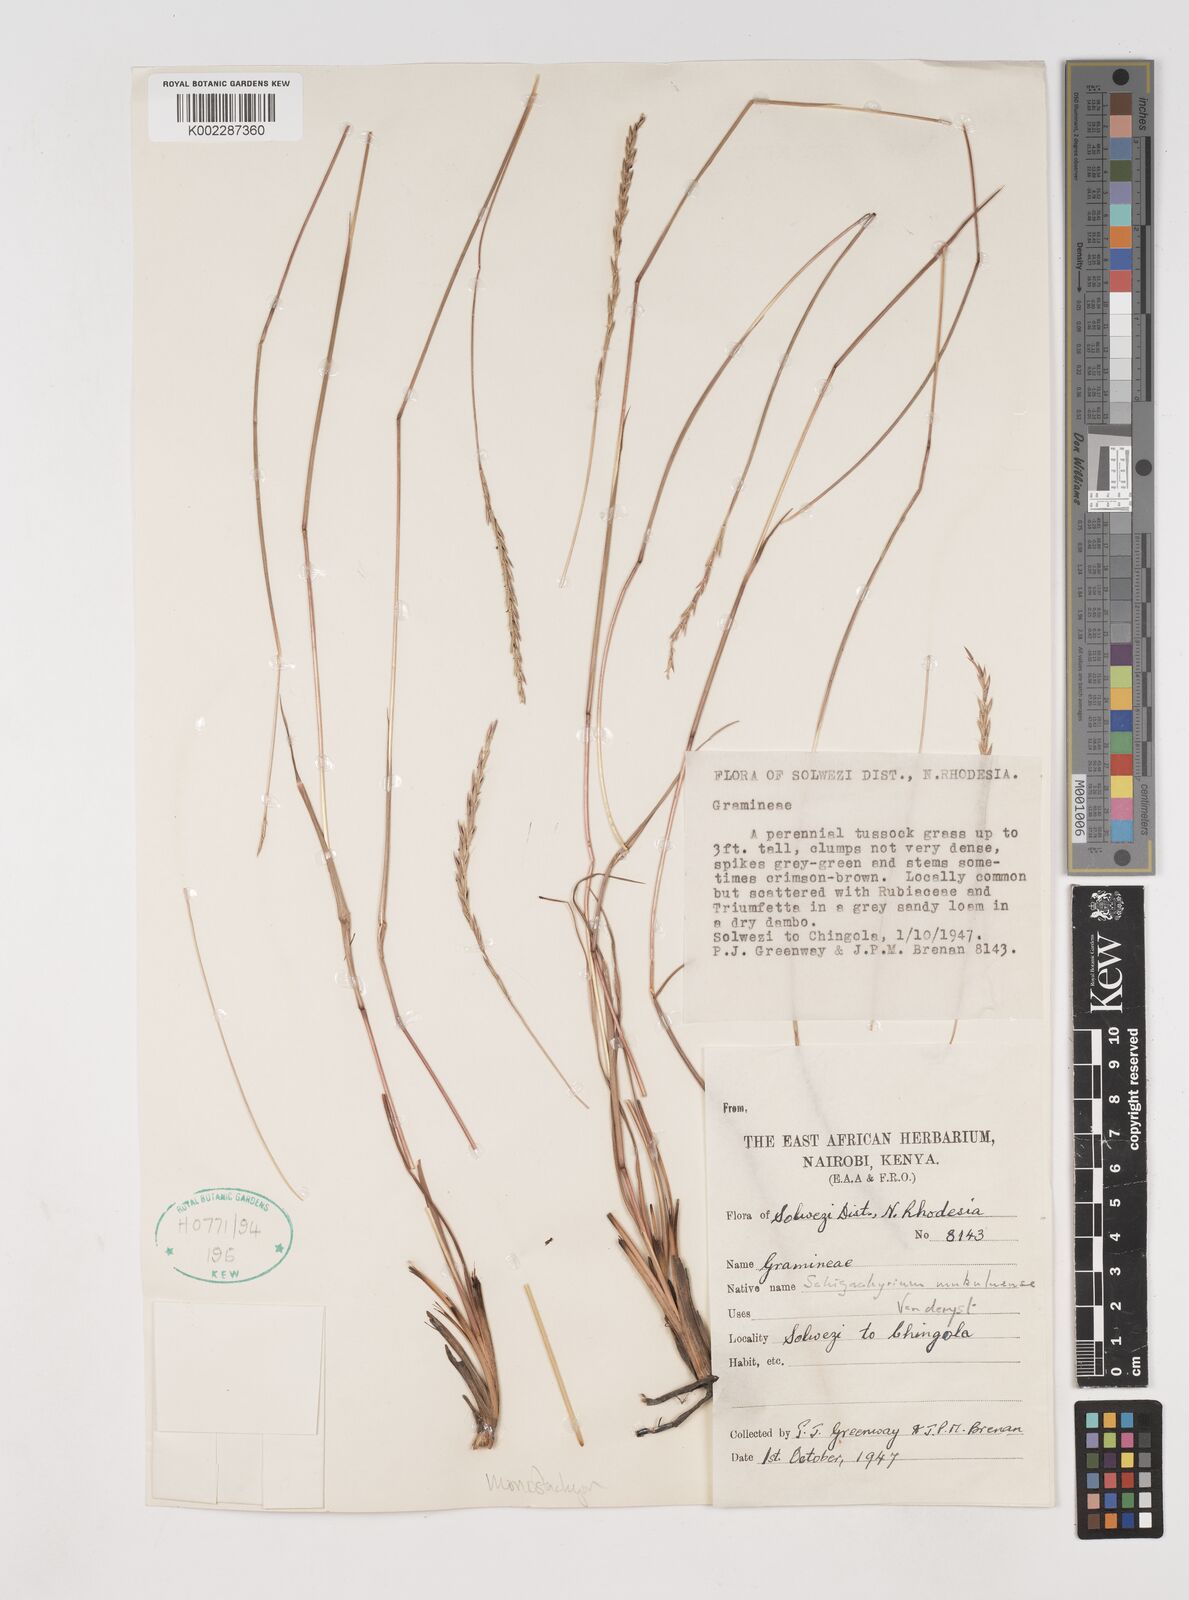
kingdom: Plantae
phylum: Tracheophyta
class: Liliopsida
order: Poales
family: Poaceae
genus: Schizachyrium
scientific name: Schizachyrium thollonii
